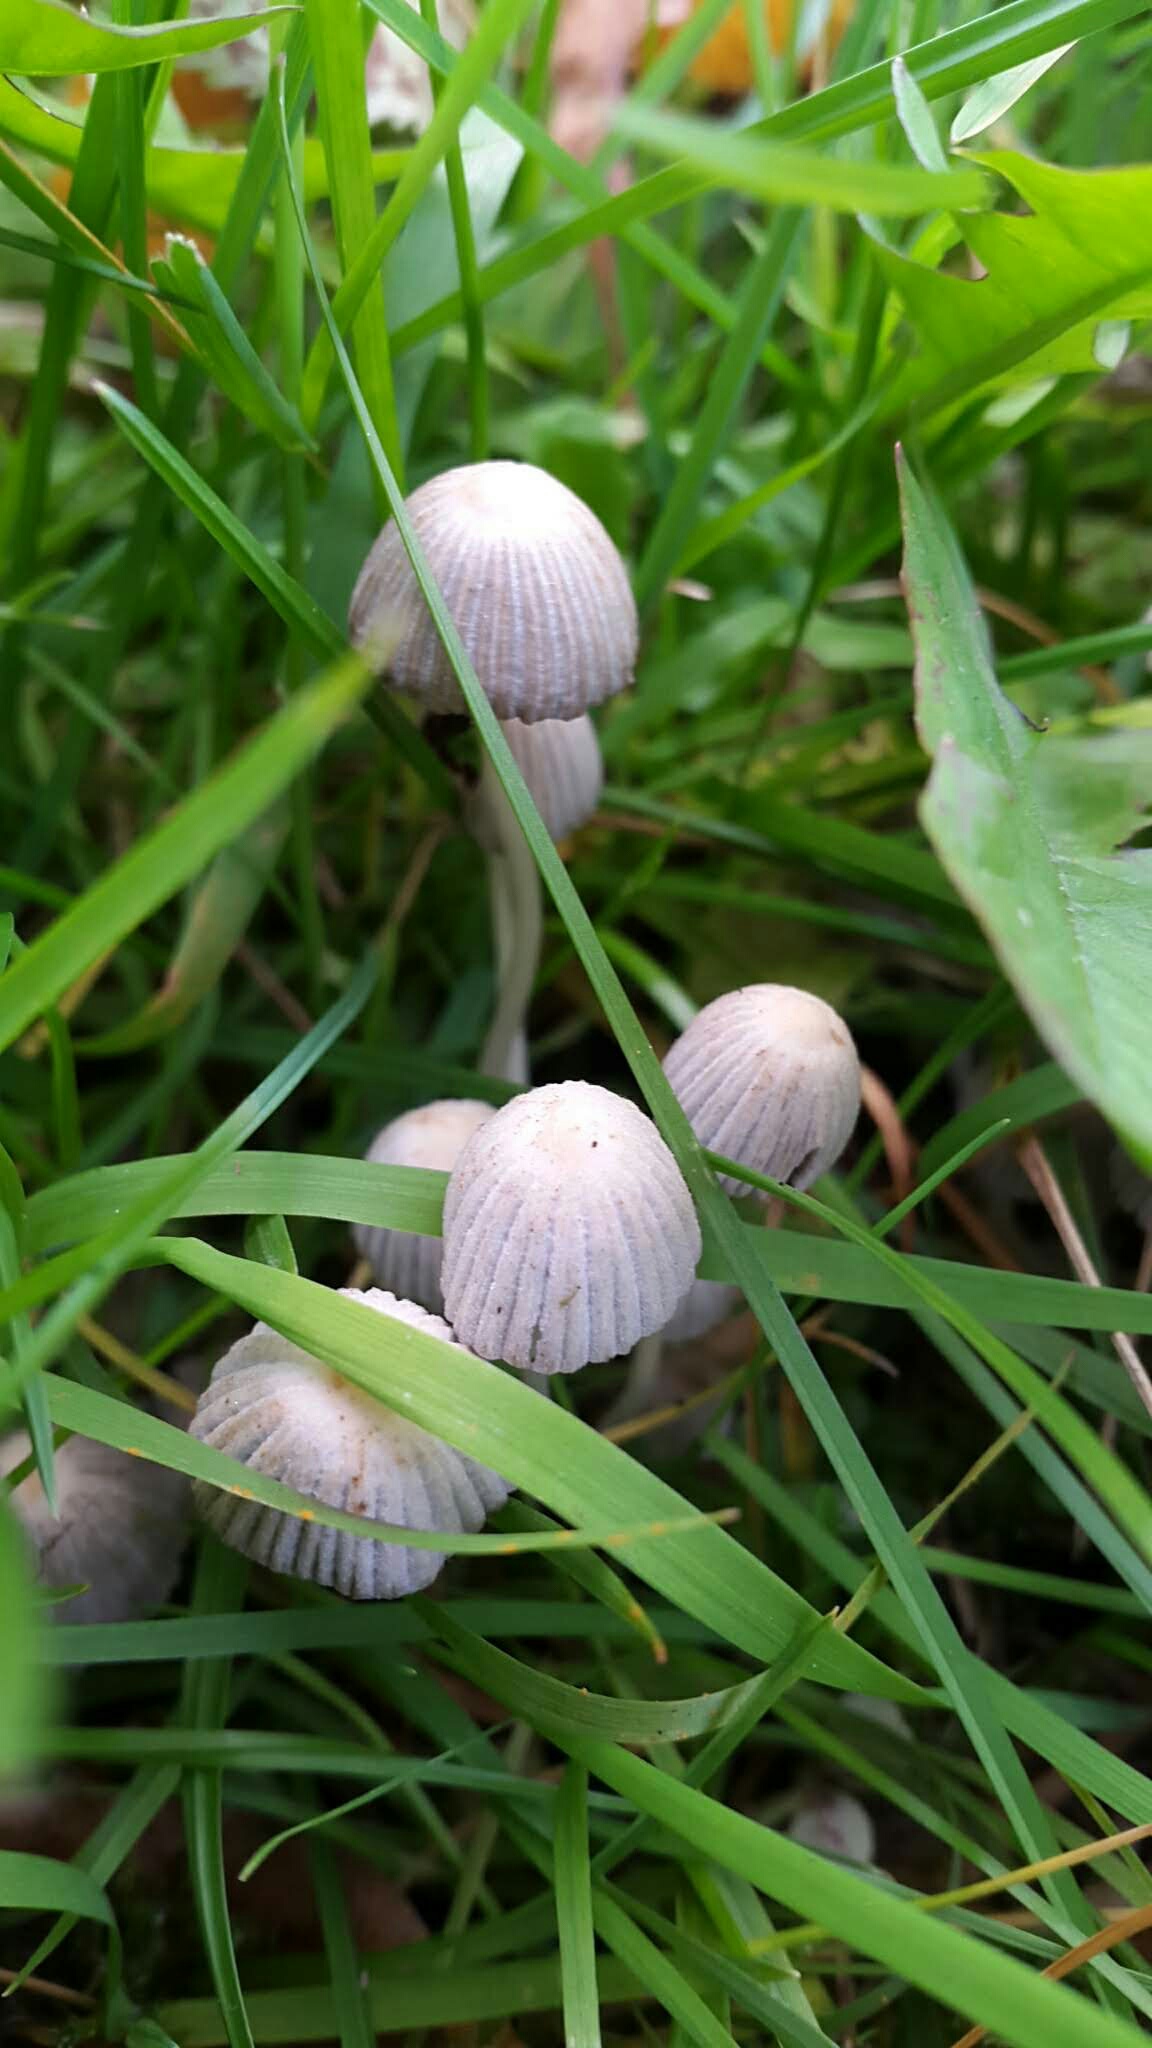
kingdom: Fungi
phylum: Basidiomycota
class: Agaricomycetes
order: Agaricales
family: Psathyrellaceae
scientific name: Psathyrellaceae
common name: mørkhatfamilien
